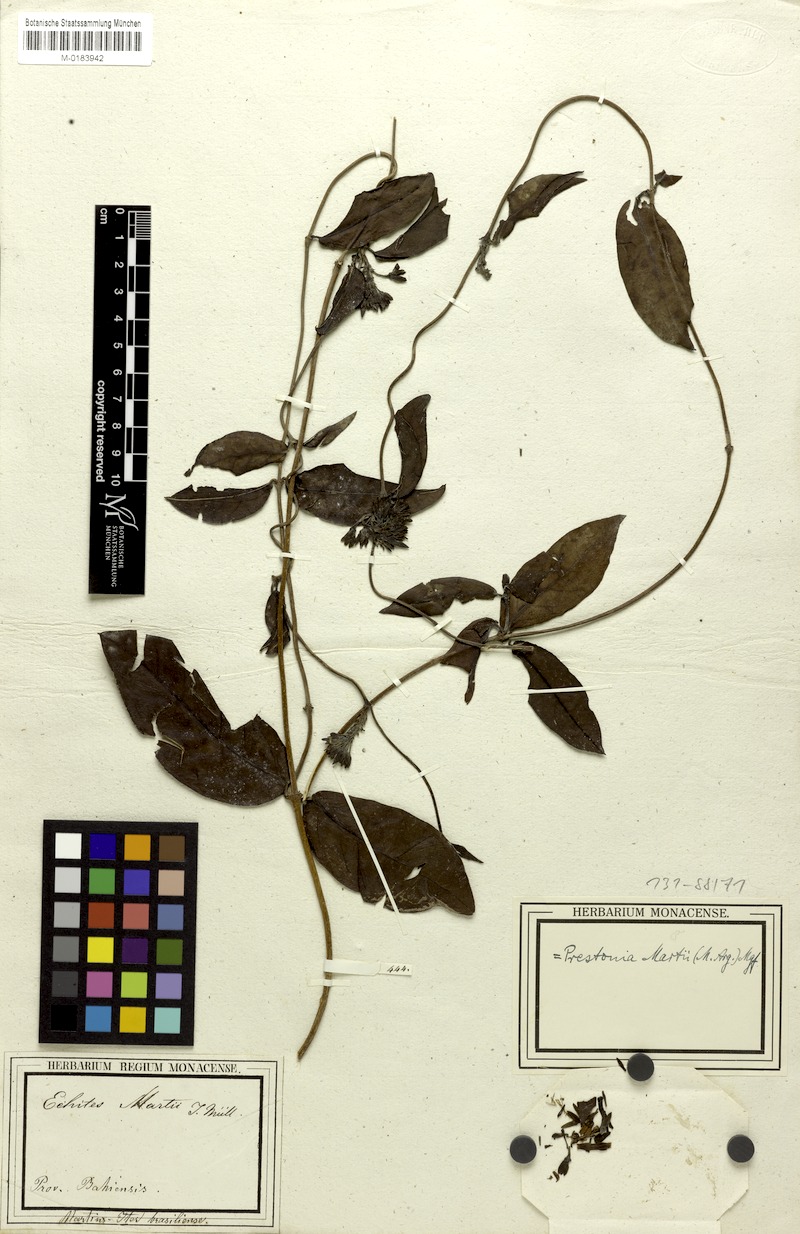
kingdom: Plantae
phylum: Tracheophyta
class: Magnoliopsida
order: Gentianales
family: Apocynaceae
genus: Prestonia
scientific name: Prestonia coalita
